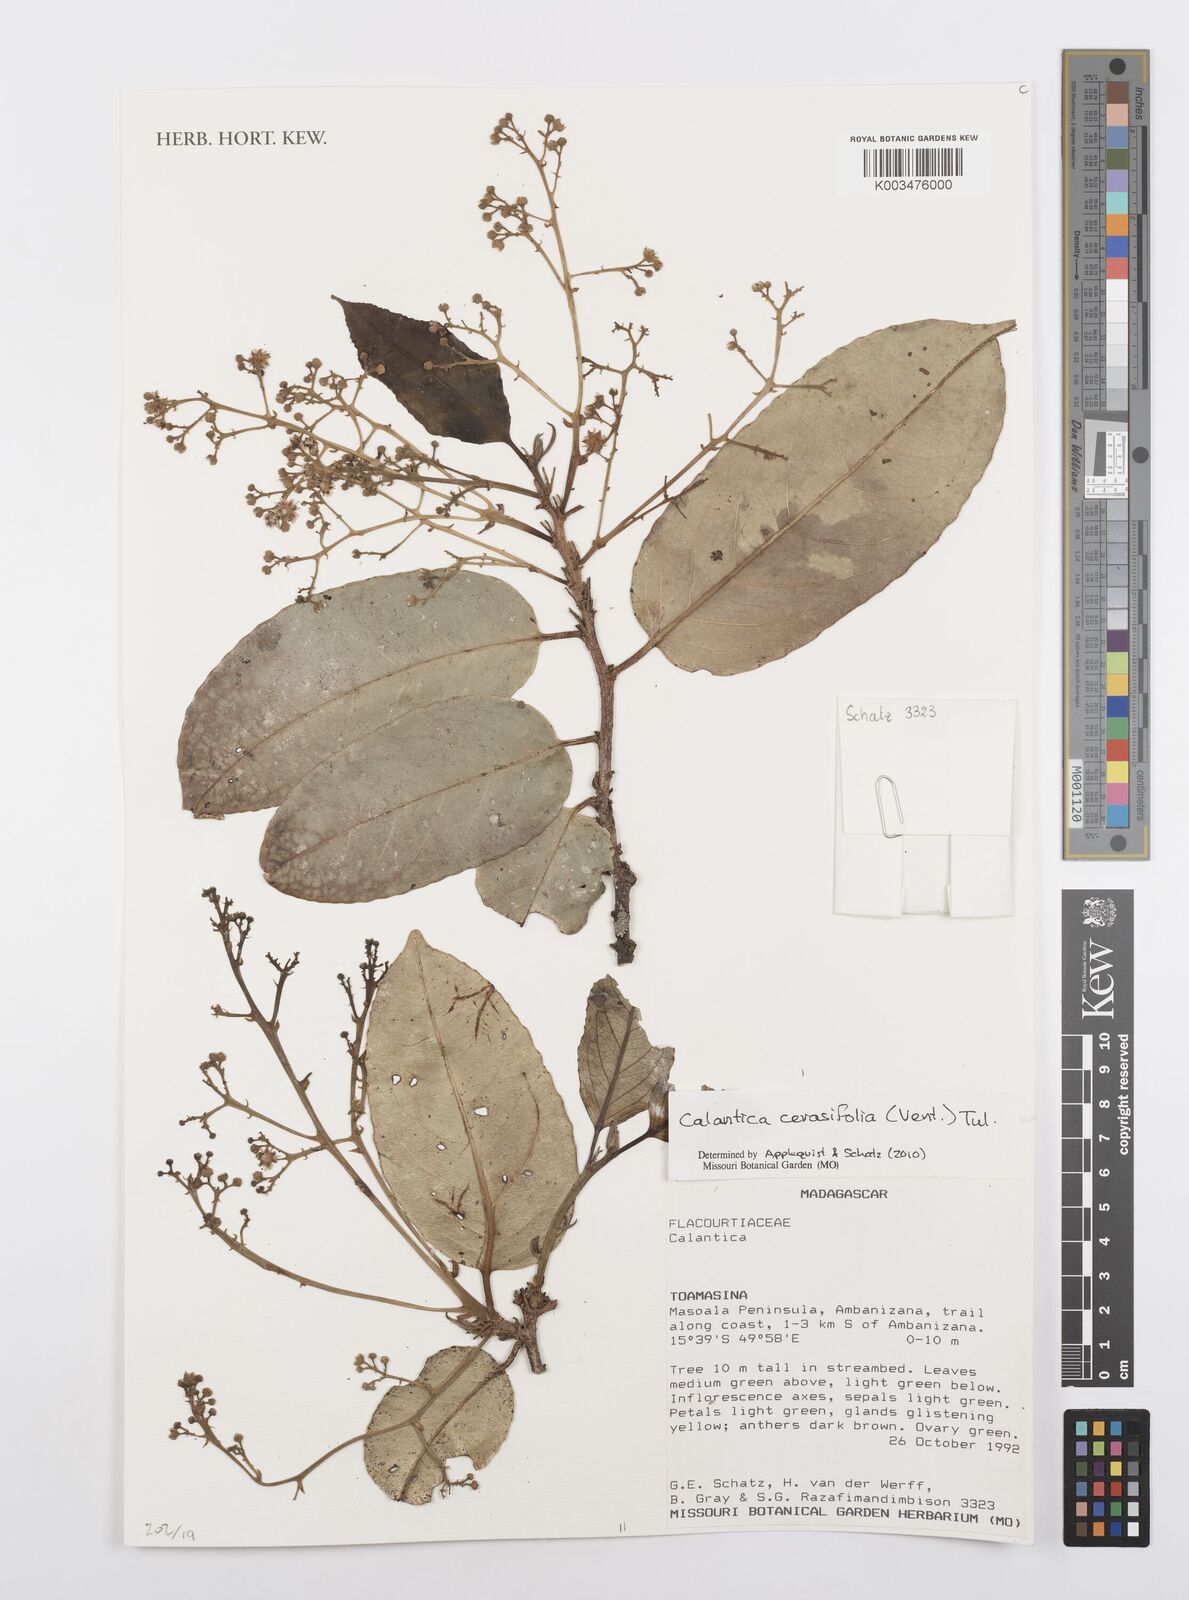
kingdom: Plantae
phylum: Tracheophyta
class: Magnoliopsida
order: Malpighiales
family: Salicaceae
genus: Calantica
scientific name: Calantica cerasifolia
